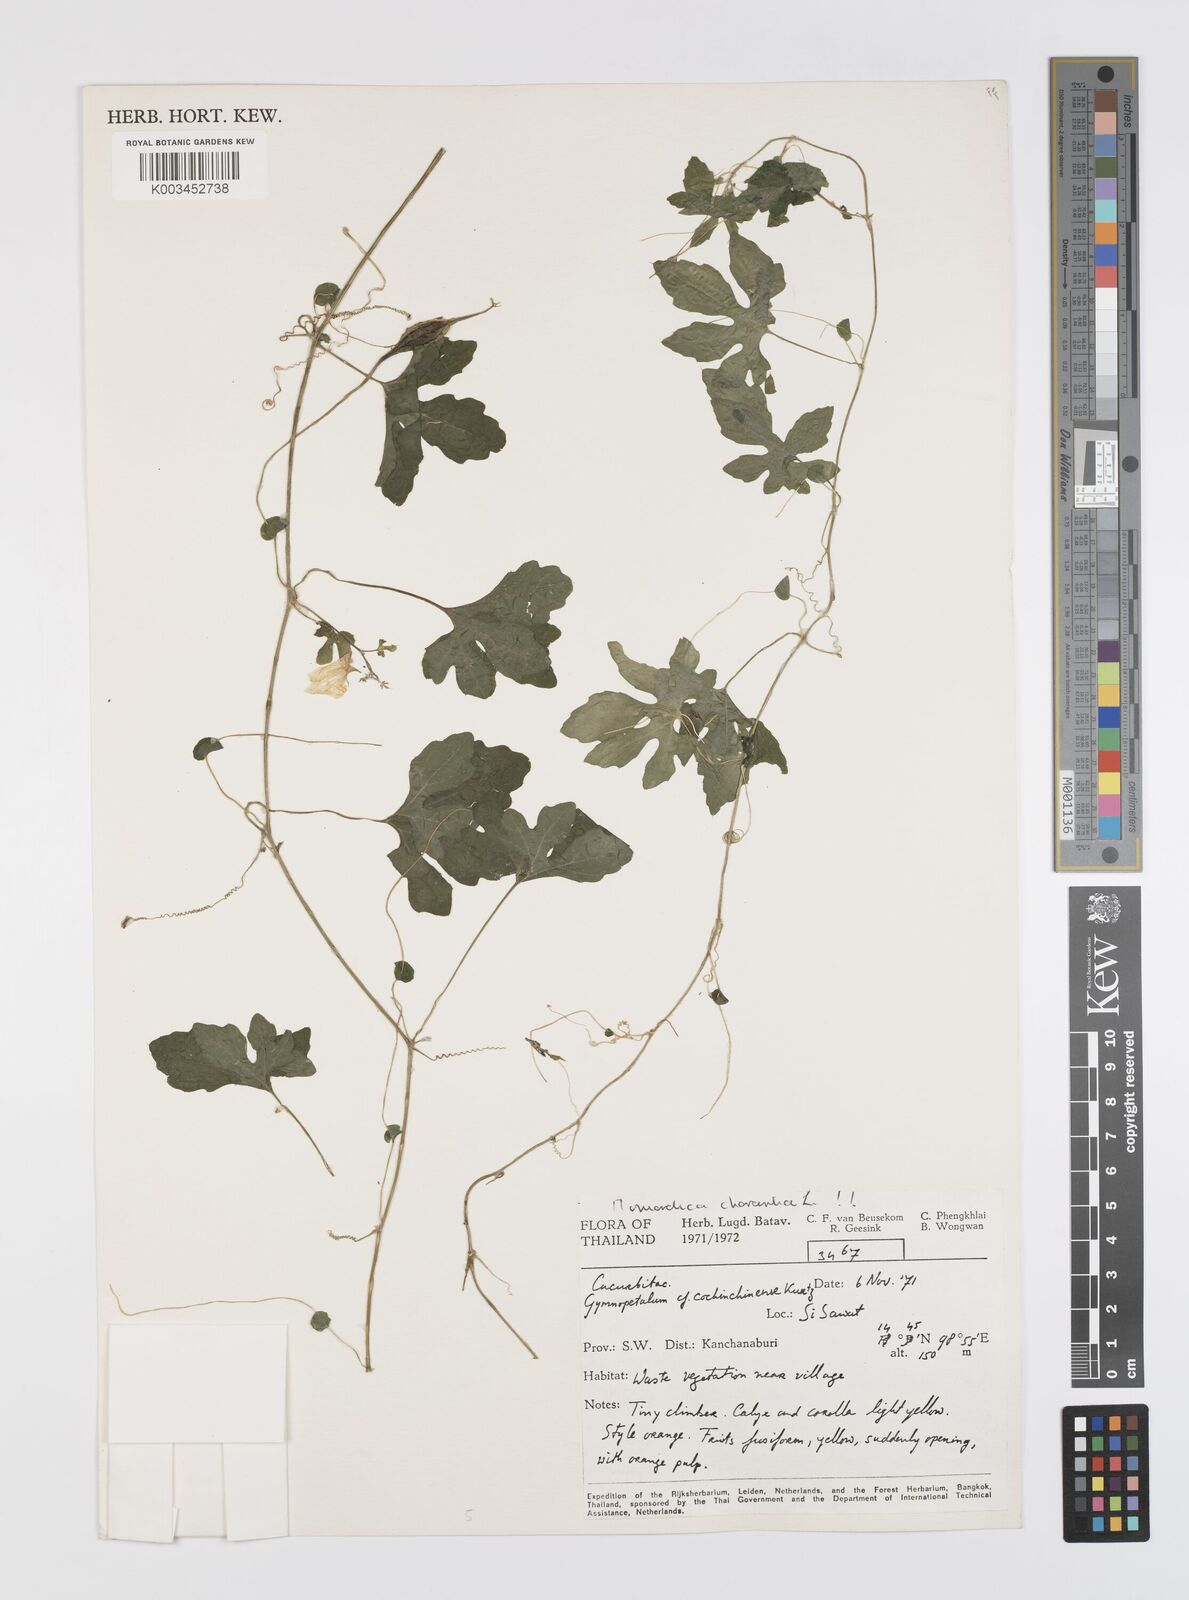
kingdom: Plantae
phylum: Tracheophyta
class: Magnoliopsida
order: Cucurbitales
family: Cucurbitaceae
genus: Momordica
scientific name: Momordica charantia
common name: Balsampear
